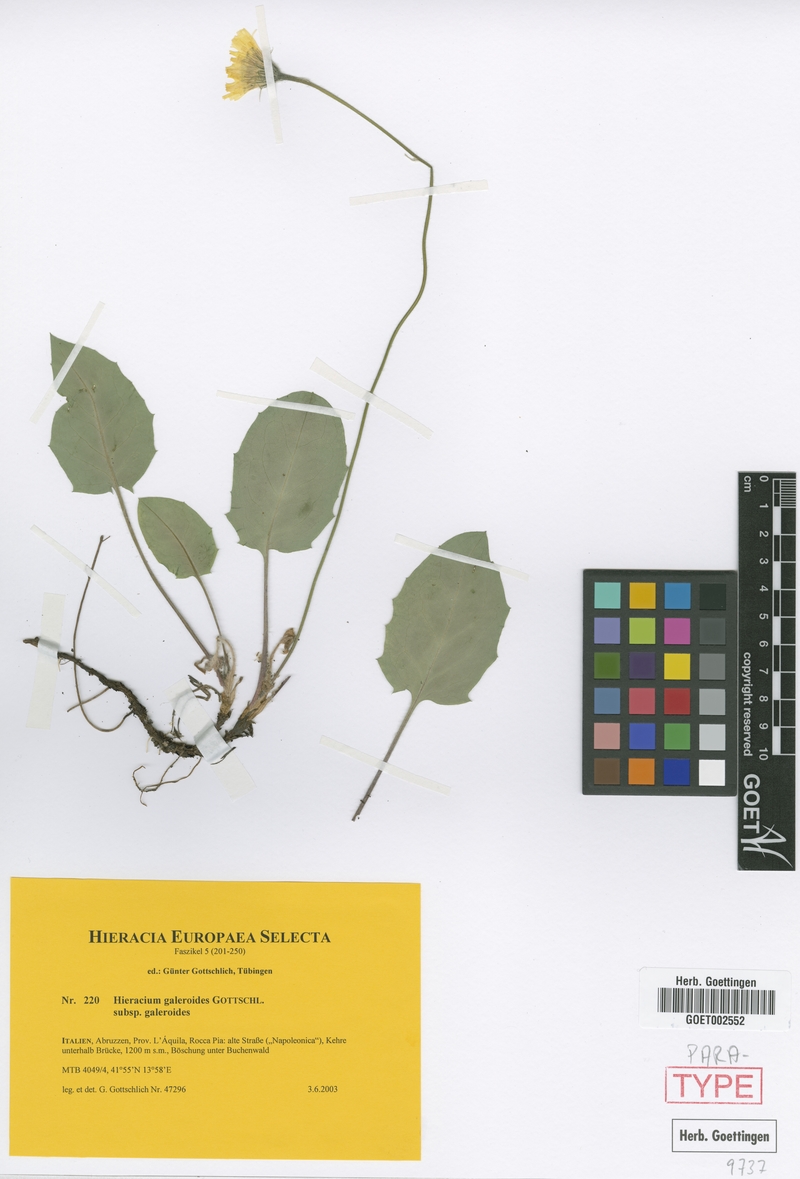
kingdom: Plantae
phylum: Tracheophyta
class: Magnoliopsida
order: Asterales
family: Asteraceae
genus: Hieracium
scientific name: Hieracium galeroides
